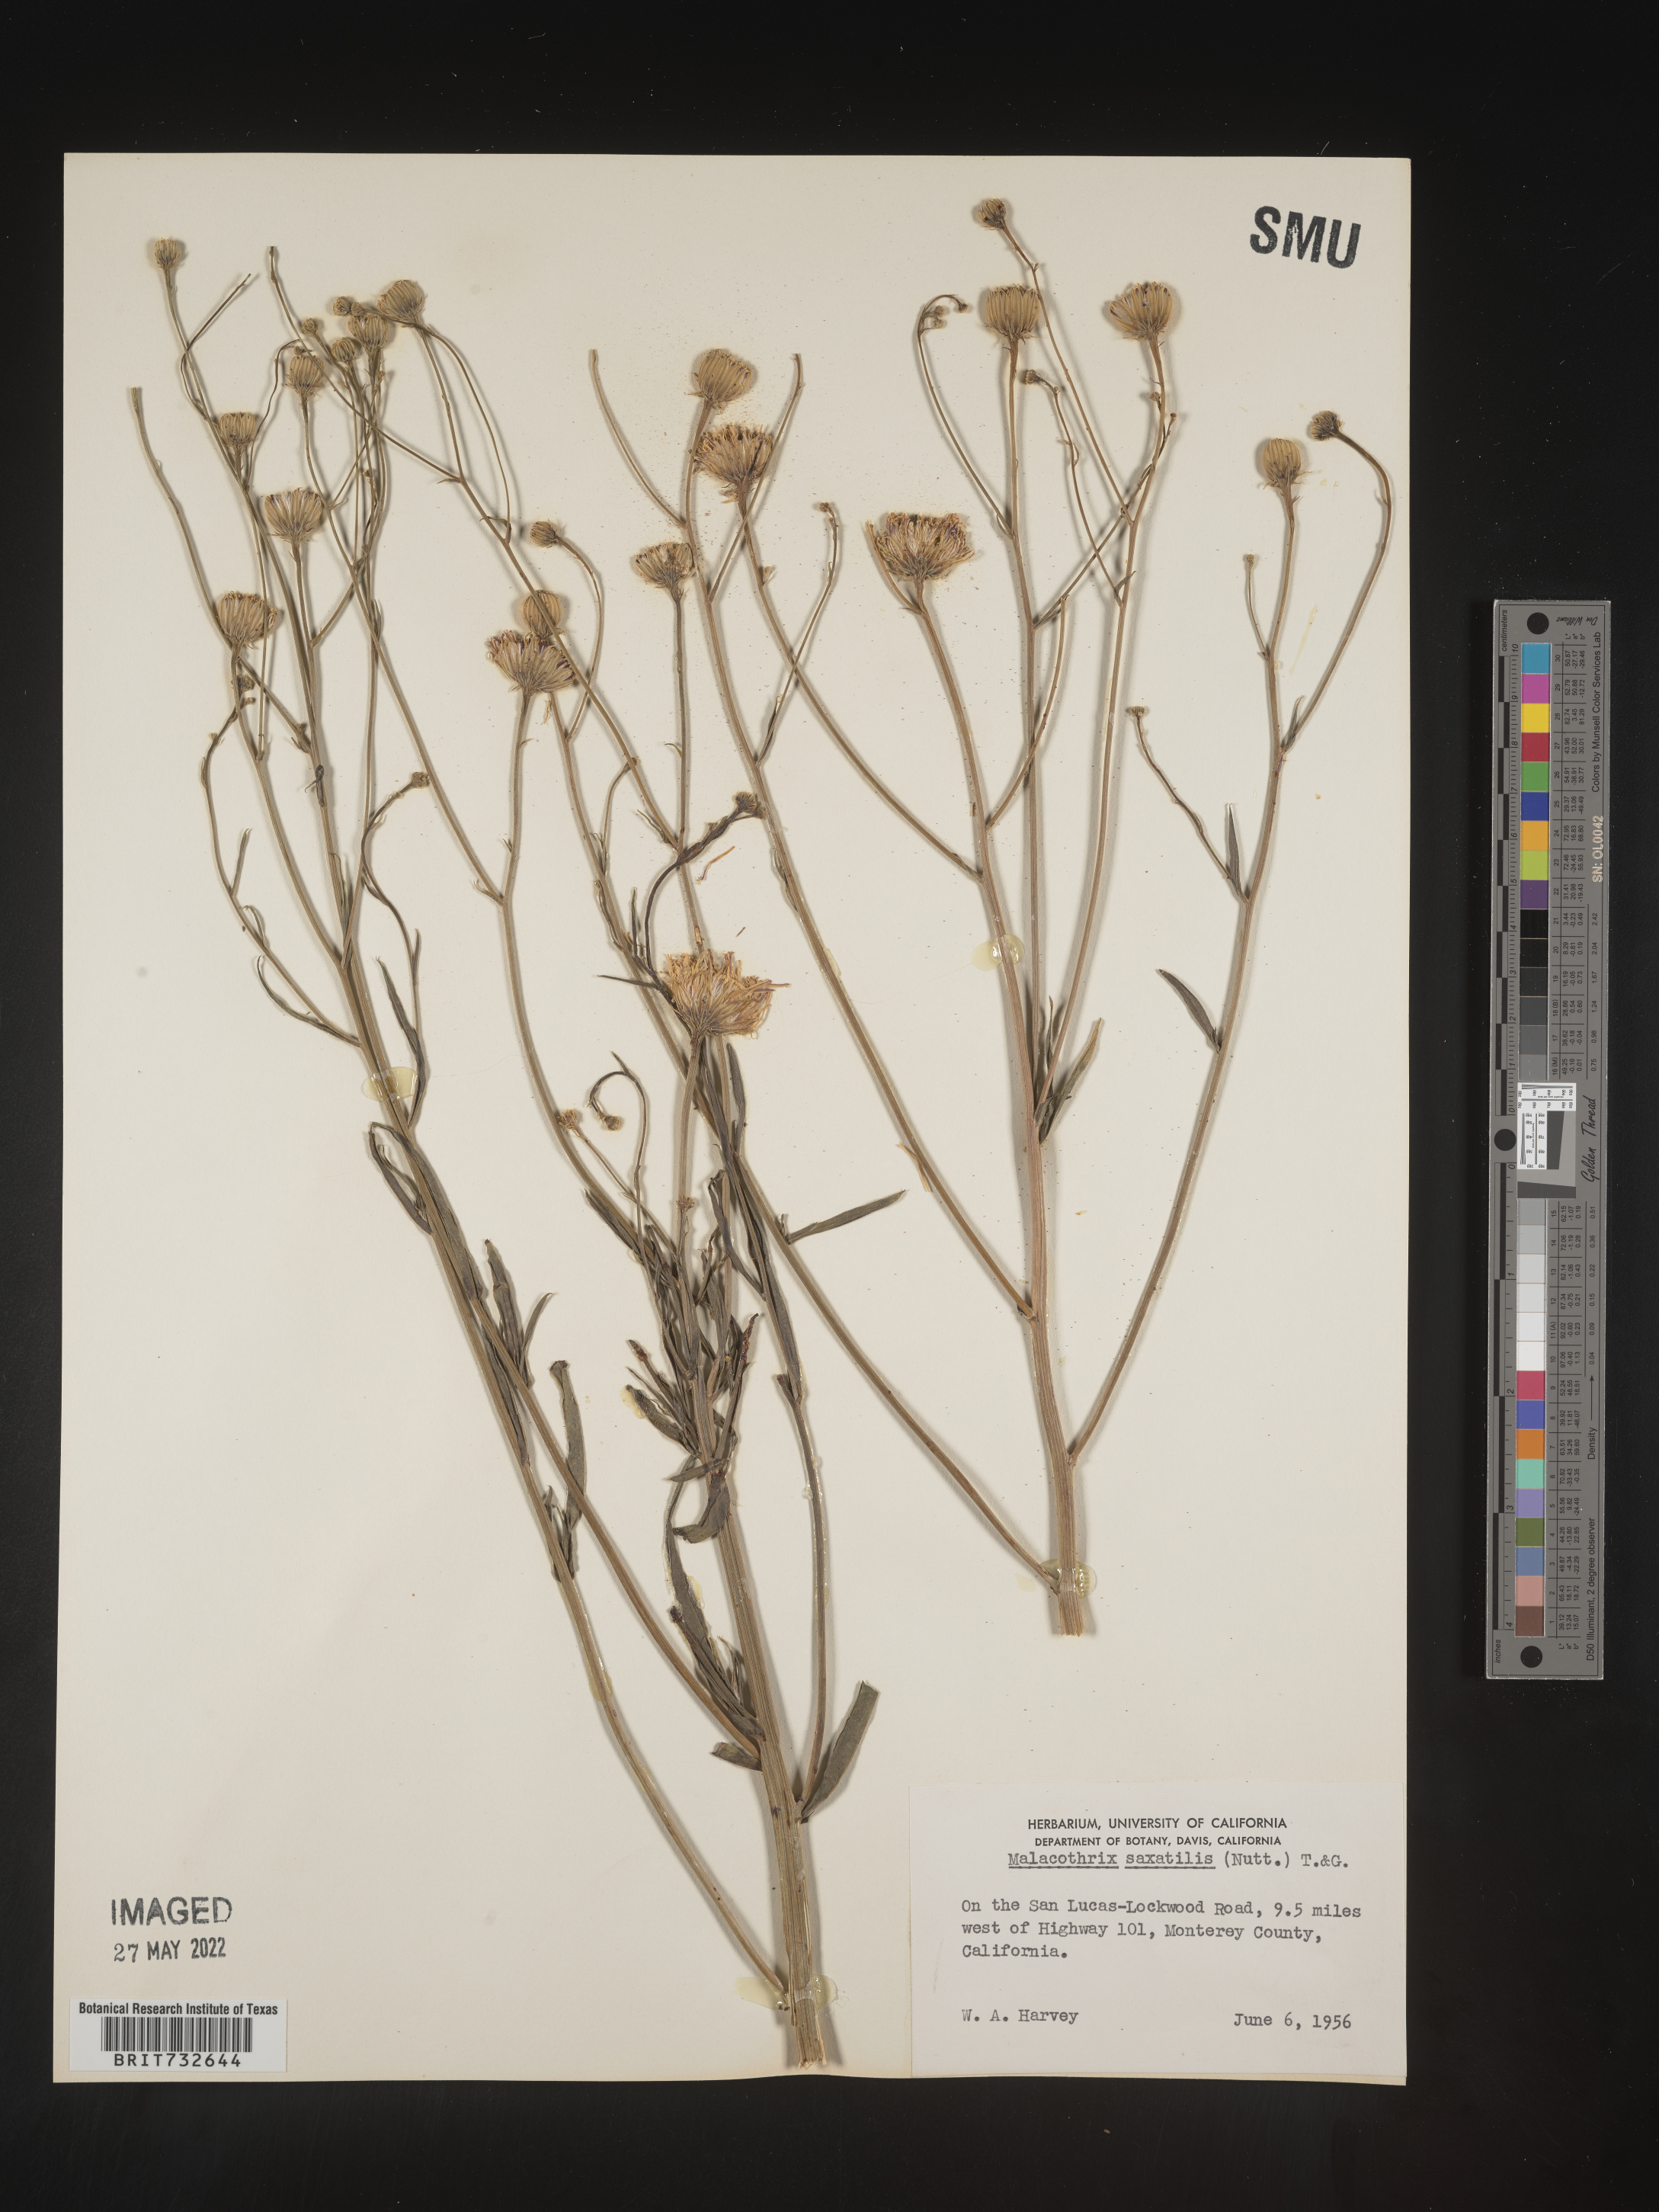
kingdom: Plantae
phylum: Tracheophyta
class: Magnoliopsida
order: Asterales
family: Asteraceae
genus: Malacothrix
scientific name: Malacothrix saxatilis
